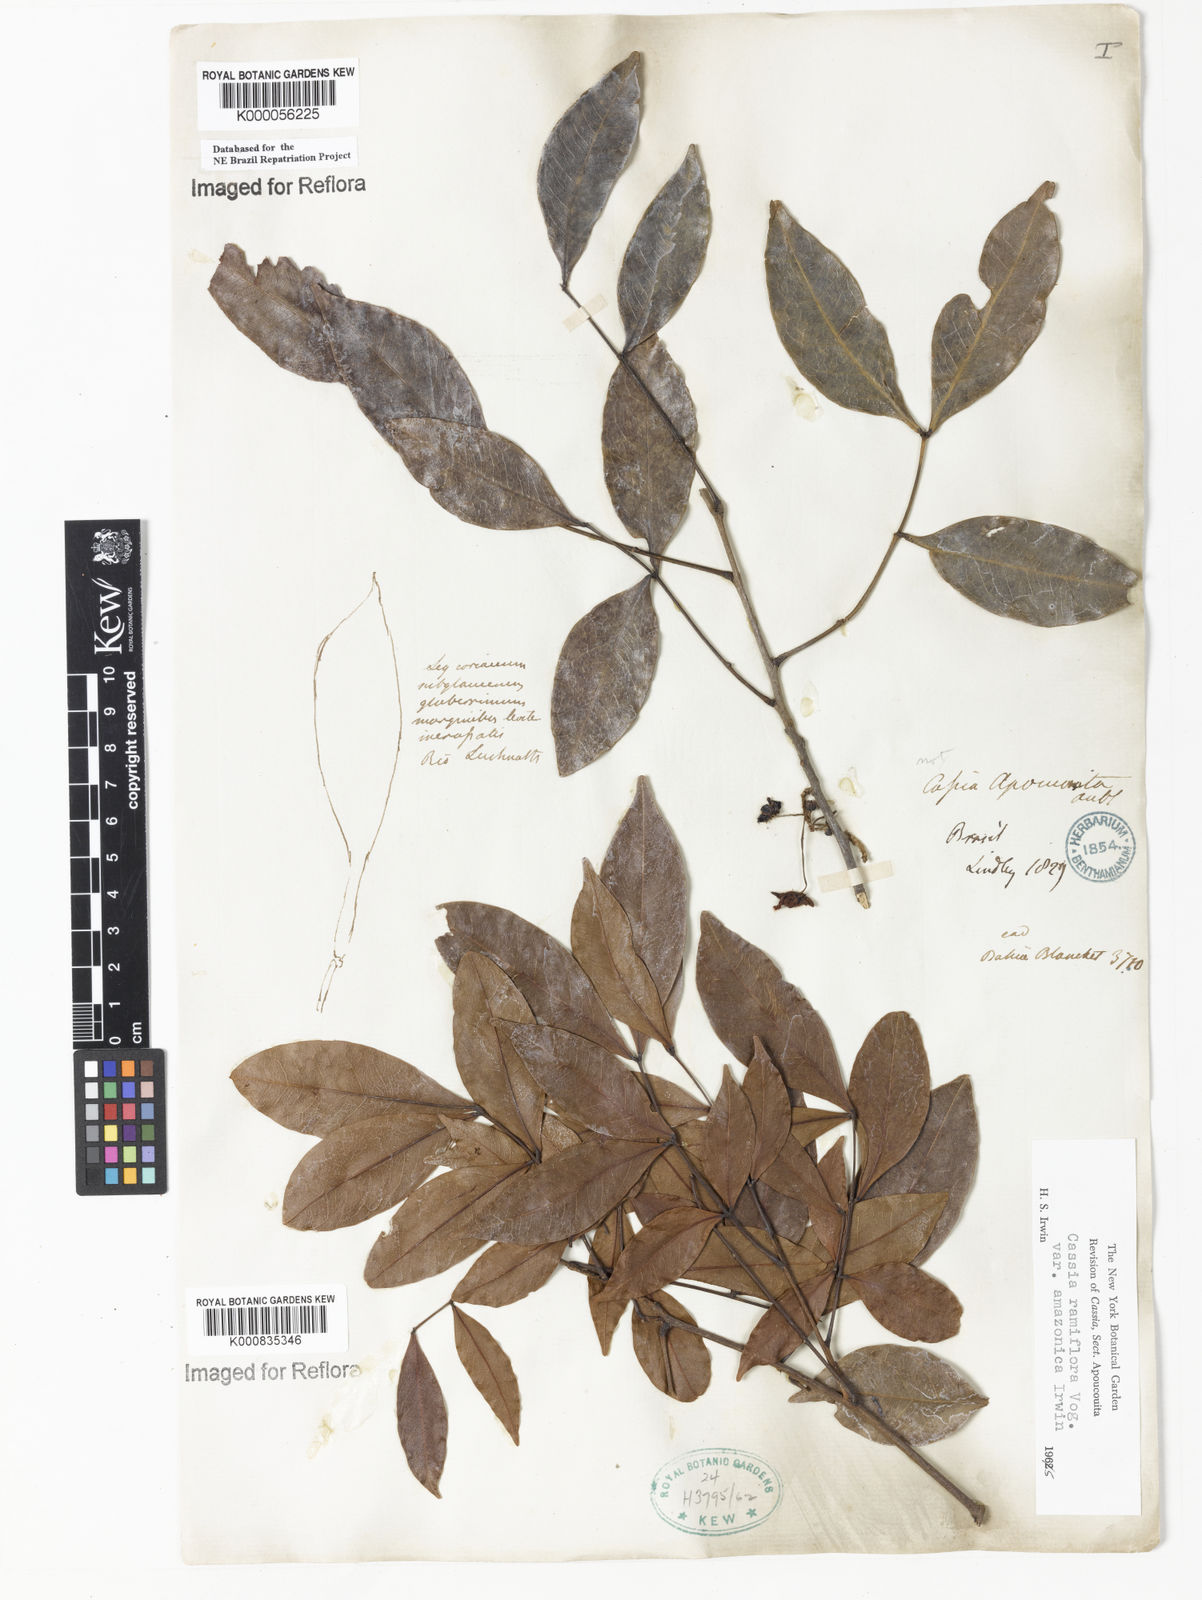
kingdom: Plantae
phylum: Tracheophyta
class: Magnoliopsida
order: Fabales
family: Fabaceae
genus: Chamaecrista
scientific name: Chamaecrista eitenorum
